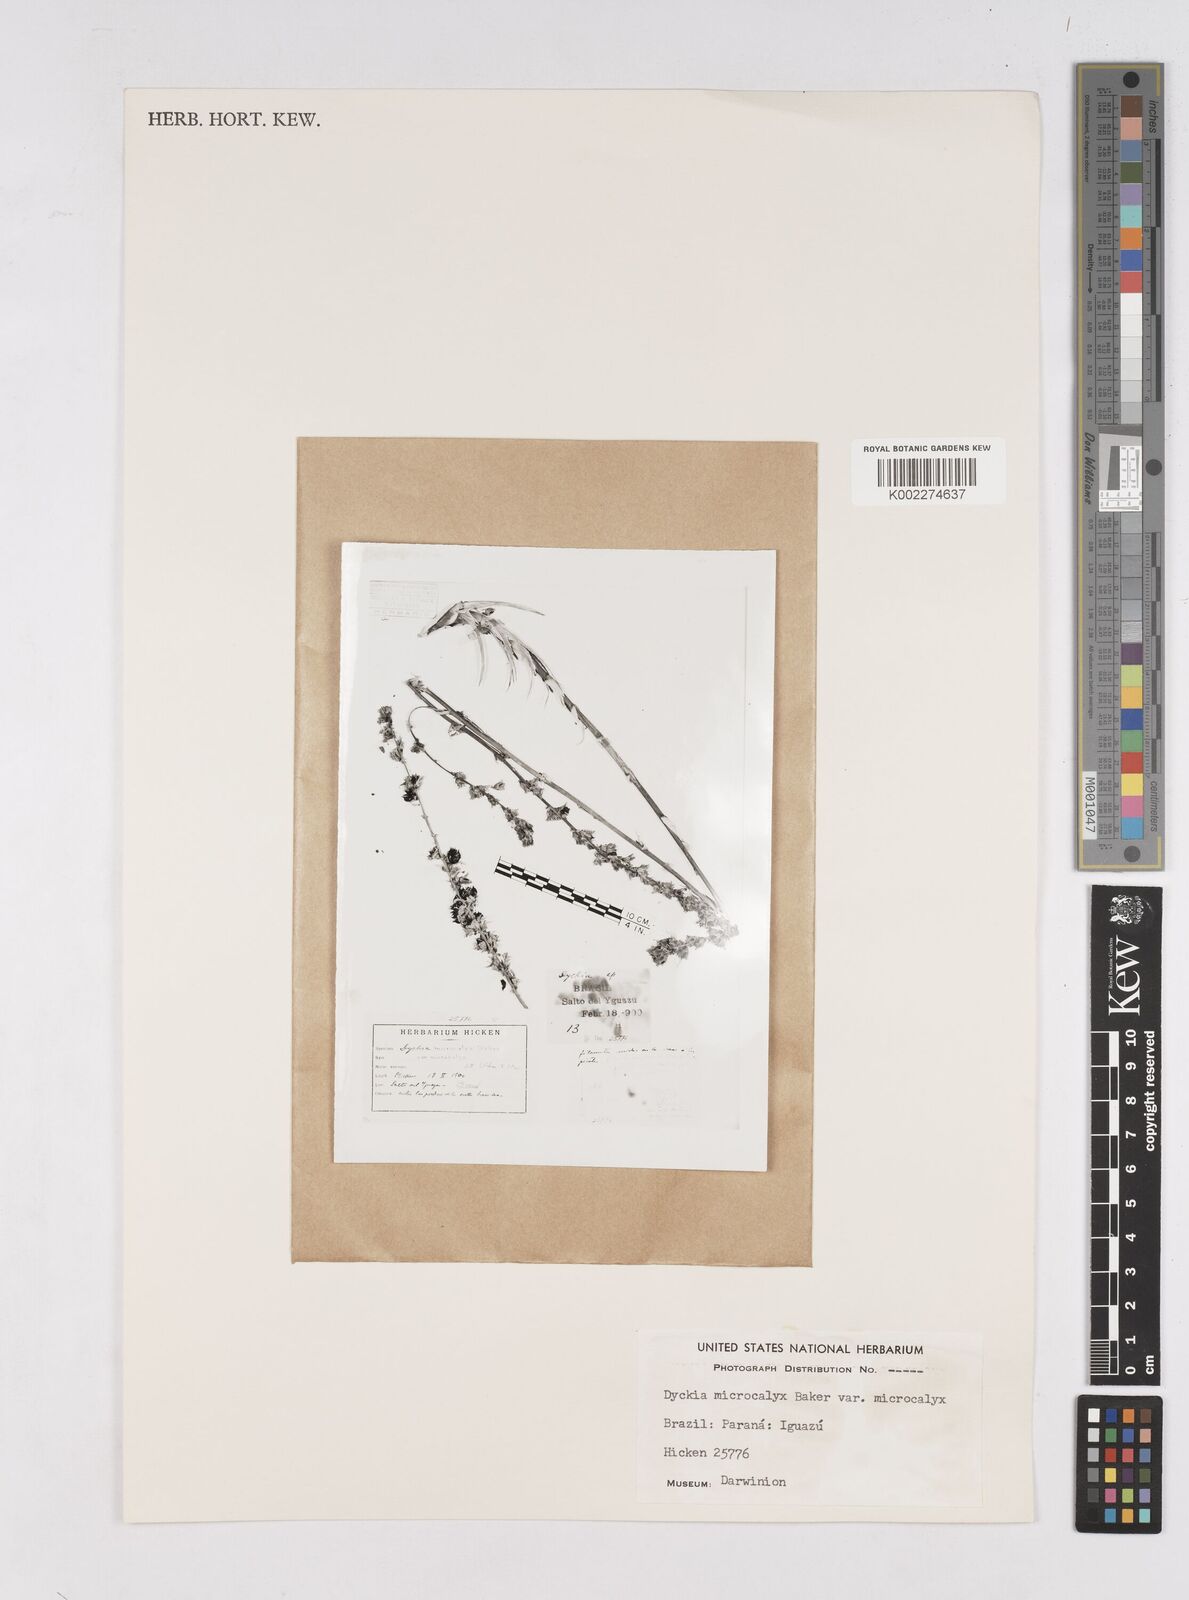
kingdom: Plantae
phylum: Tracheophyta
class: Liliopsida
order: Poales
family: Bromeliaceae
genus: Dyckia
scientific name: Dyckia microcalyx
